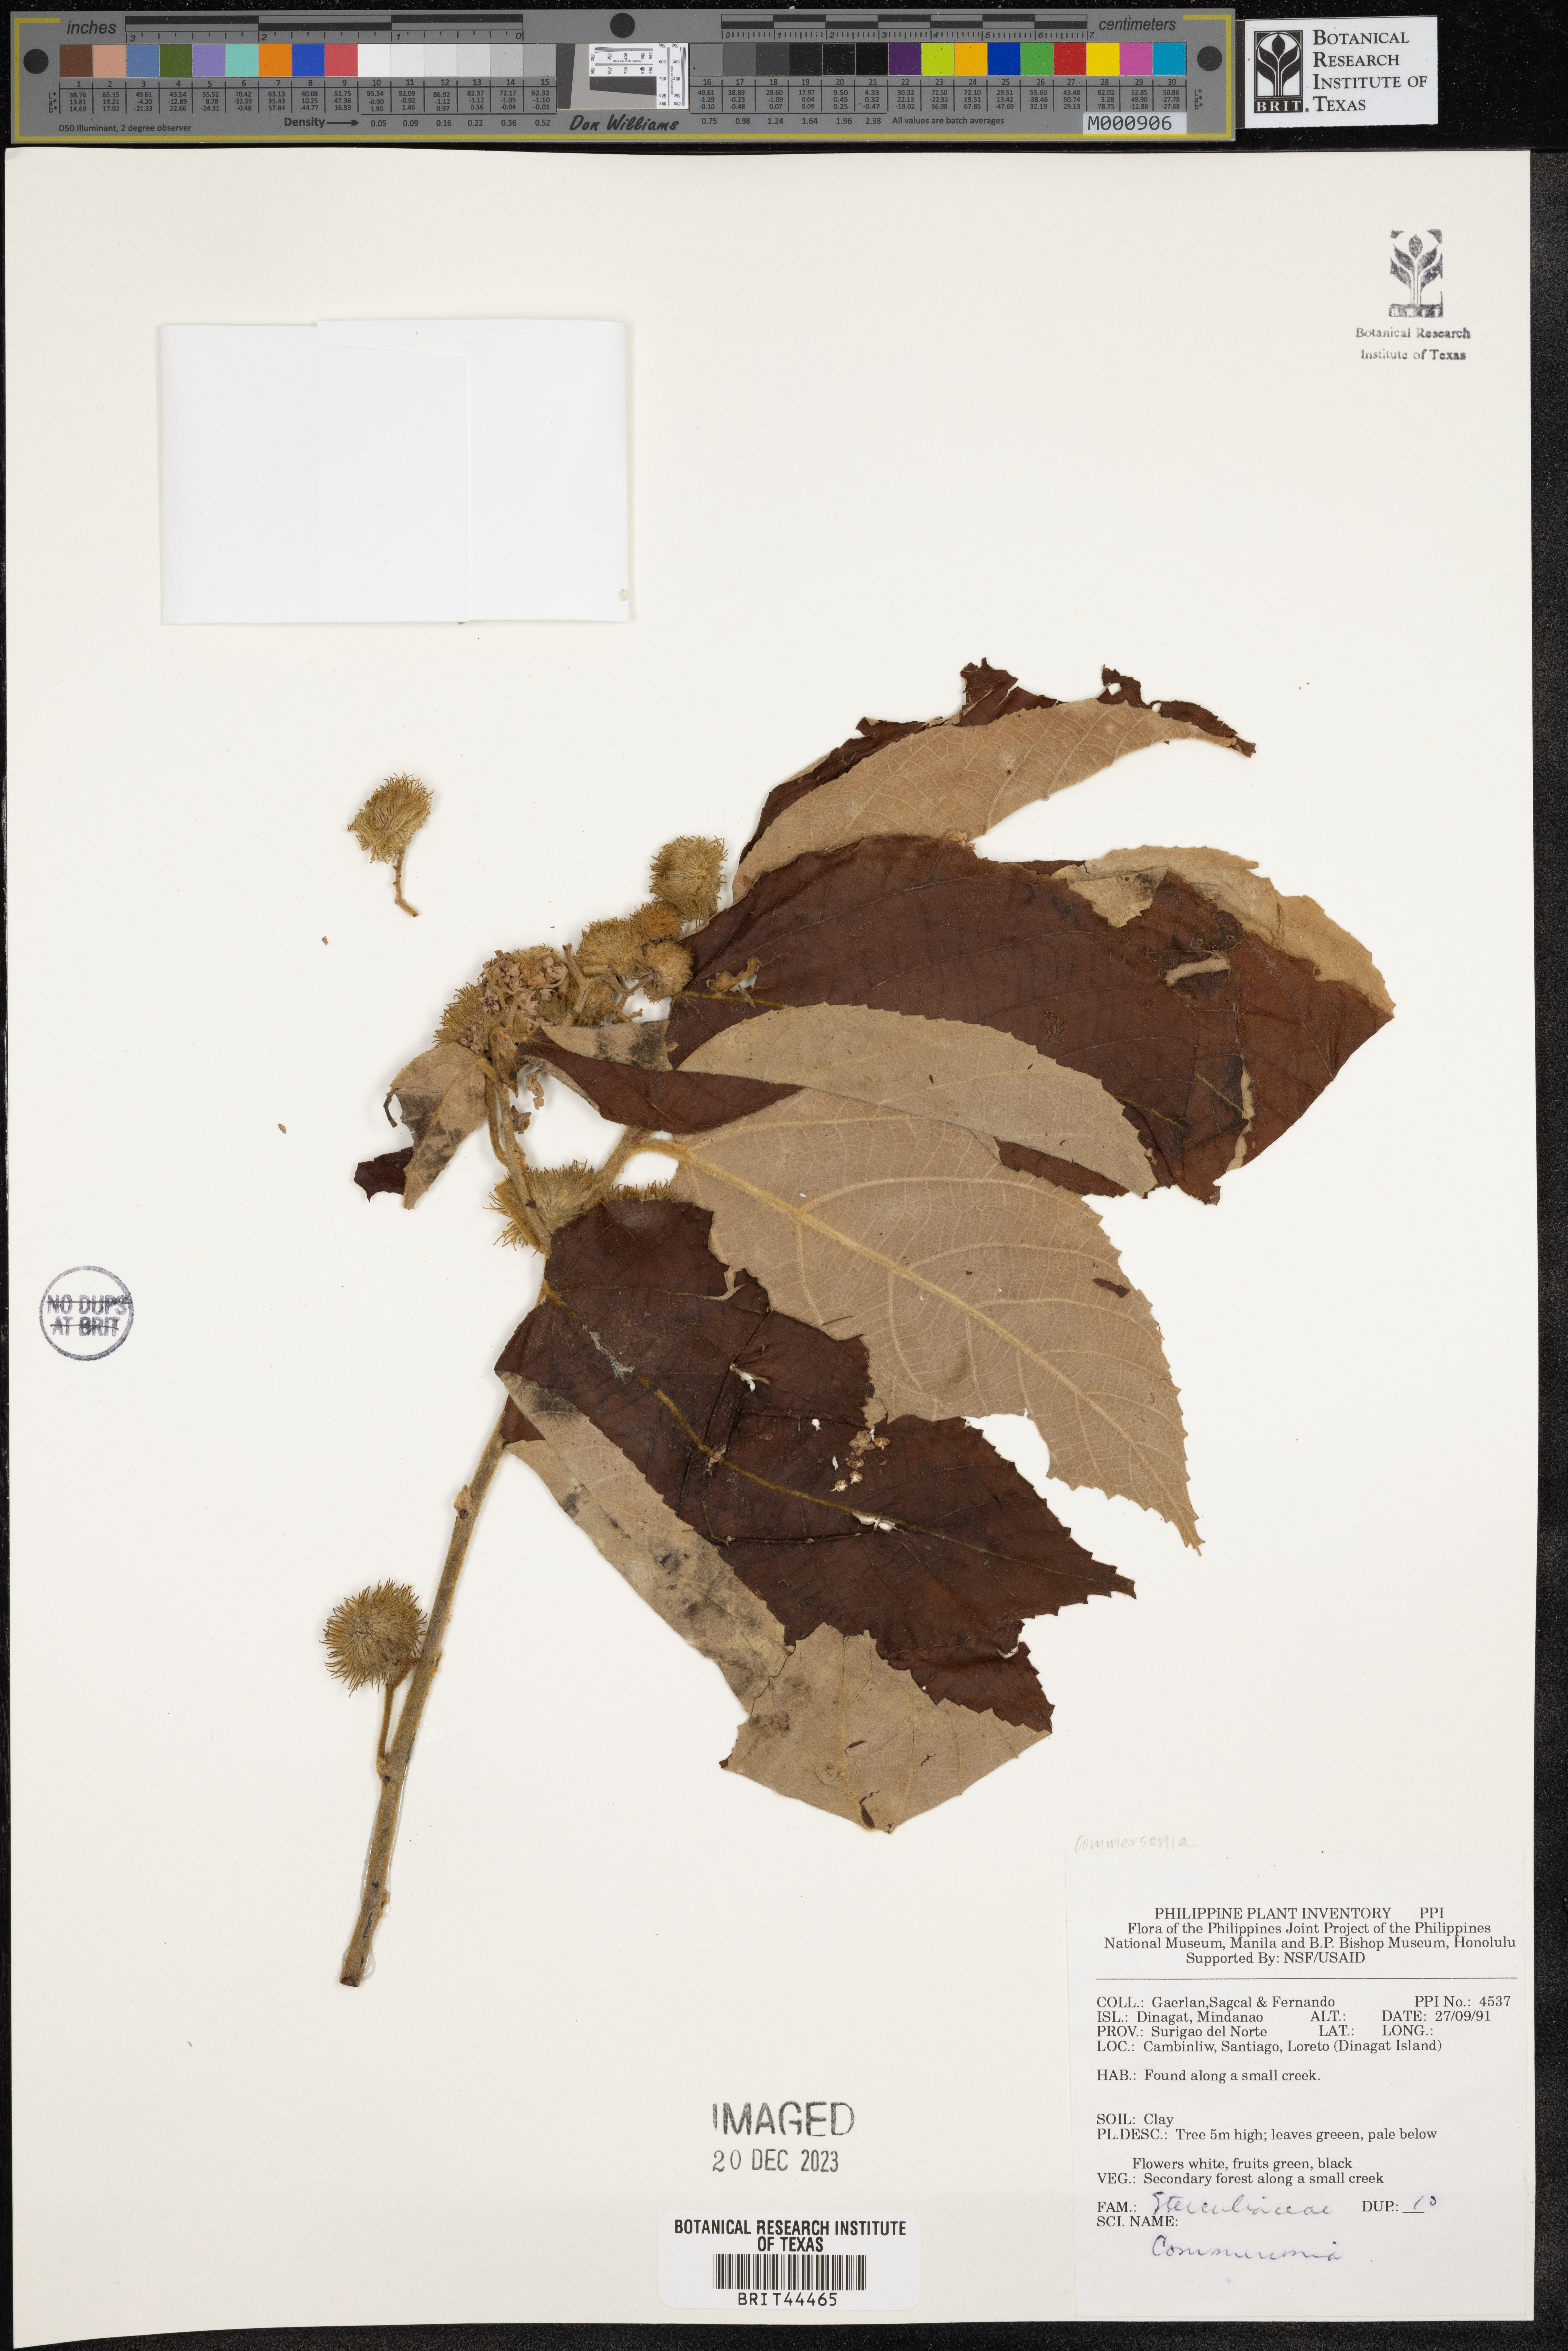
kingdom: Plantae
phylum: Tracheophyta
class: Magnoliopsida
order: Malvales
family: Malvaceae
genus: Commersonia
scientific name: Commersonia
